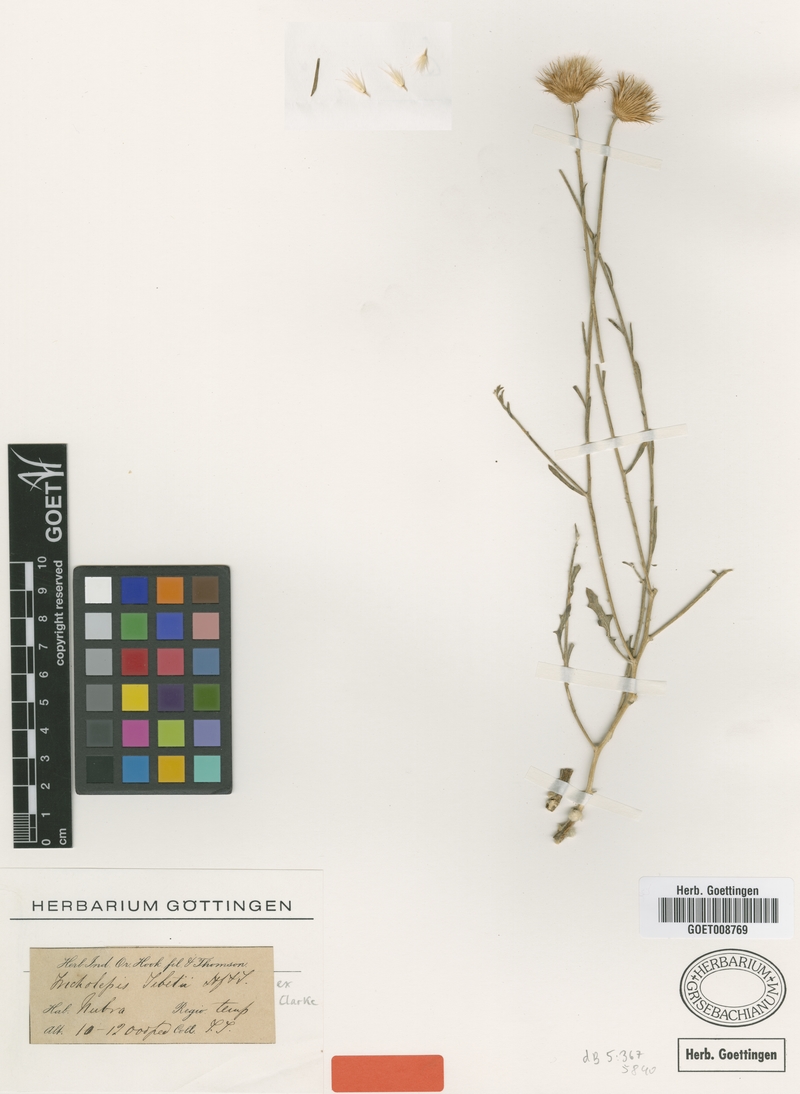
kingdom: Plantae
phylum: Tracheophyta
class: Magnoliopsida
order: Asterales
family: Asteraceae
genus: Tricholepis
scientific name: Tricholepis tibetica
